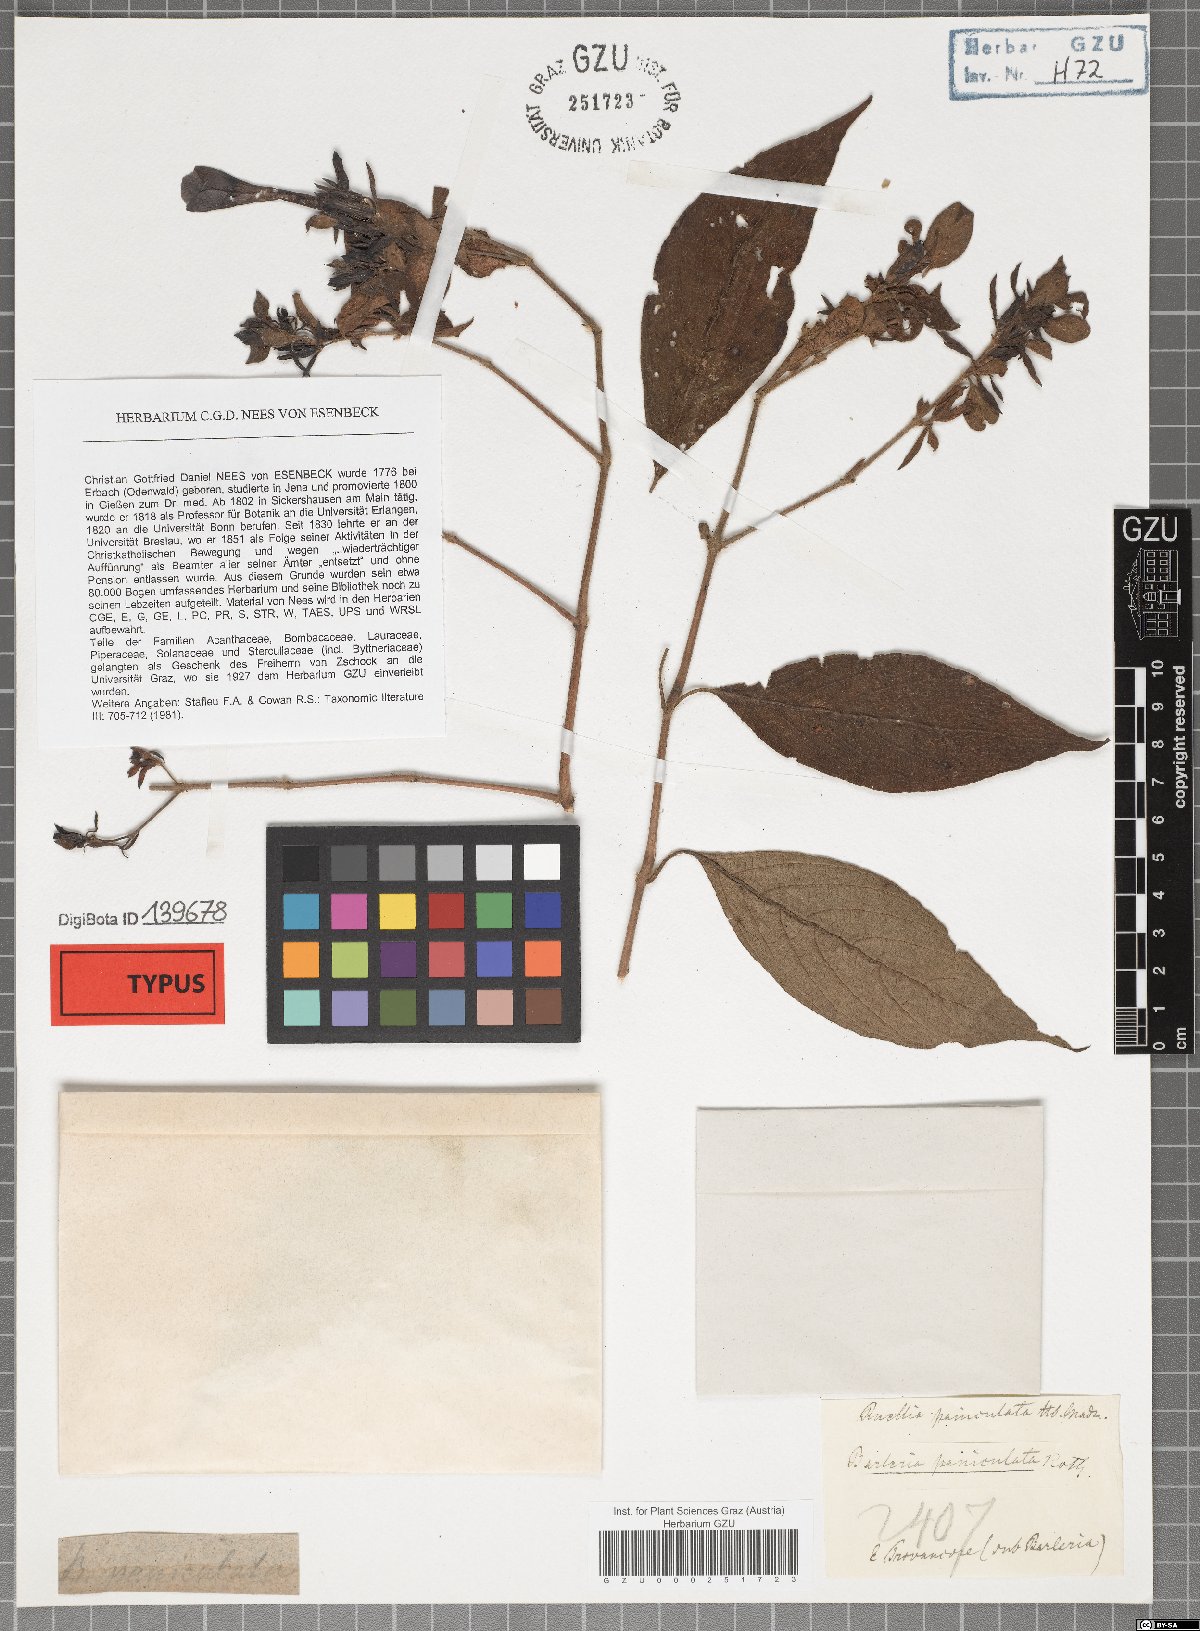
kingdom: Plantae
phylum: Tracheophyta
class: Magnoliopsida
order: Lamiales
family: Acanthaceae
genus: Barleria
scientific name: Barleria tomentosa
